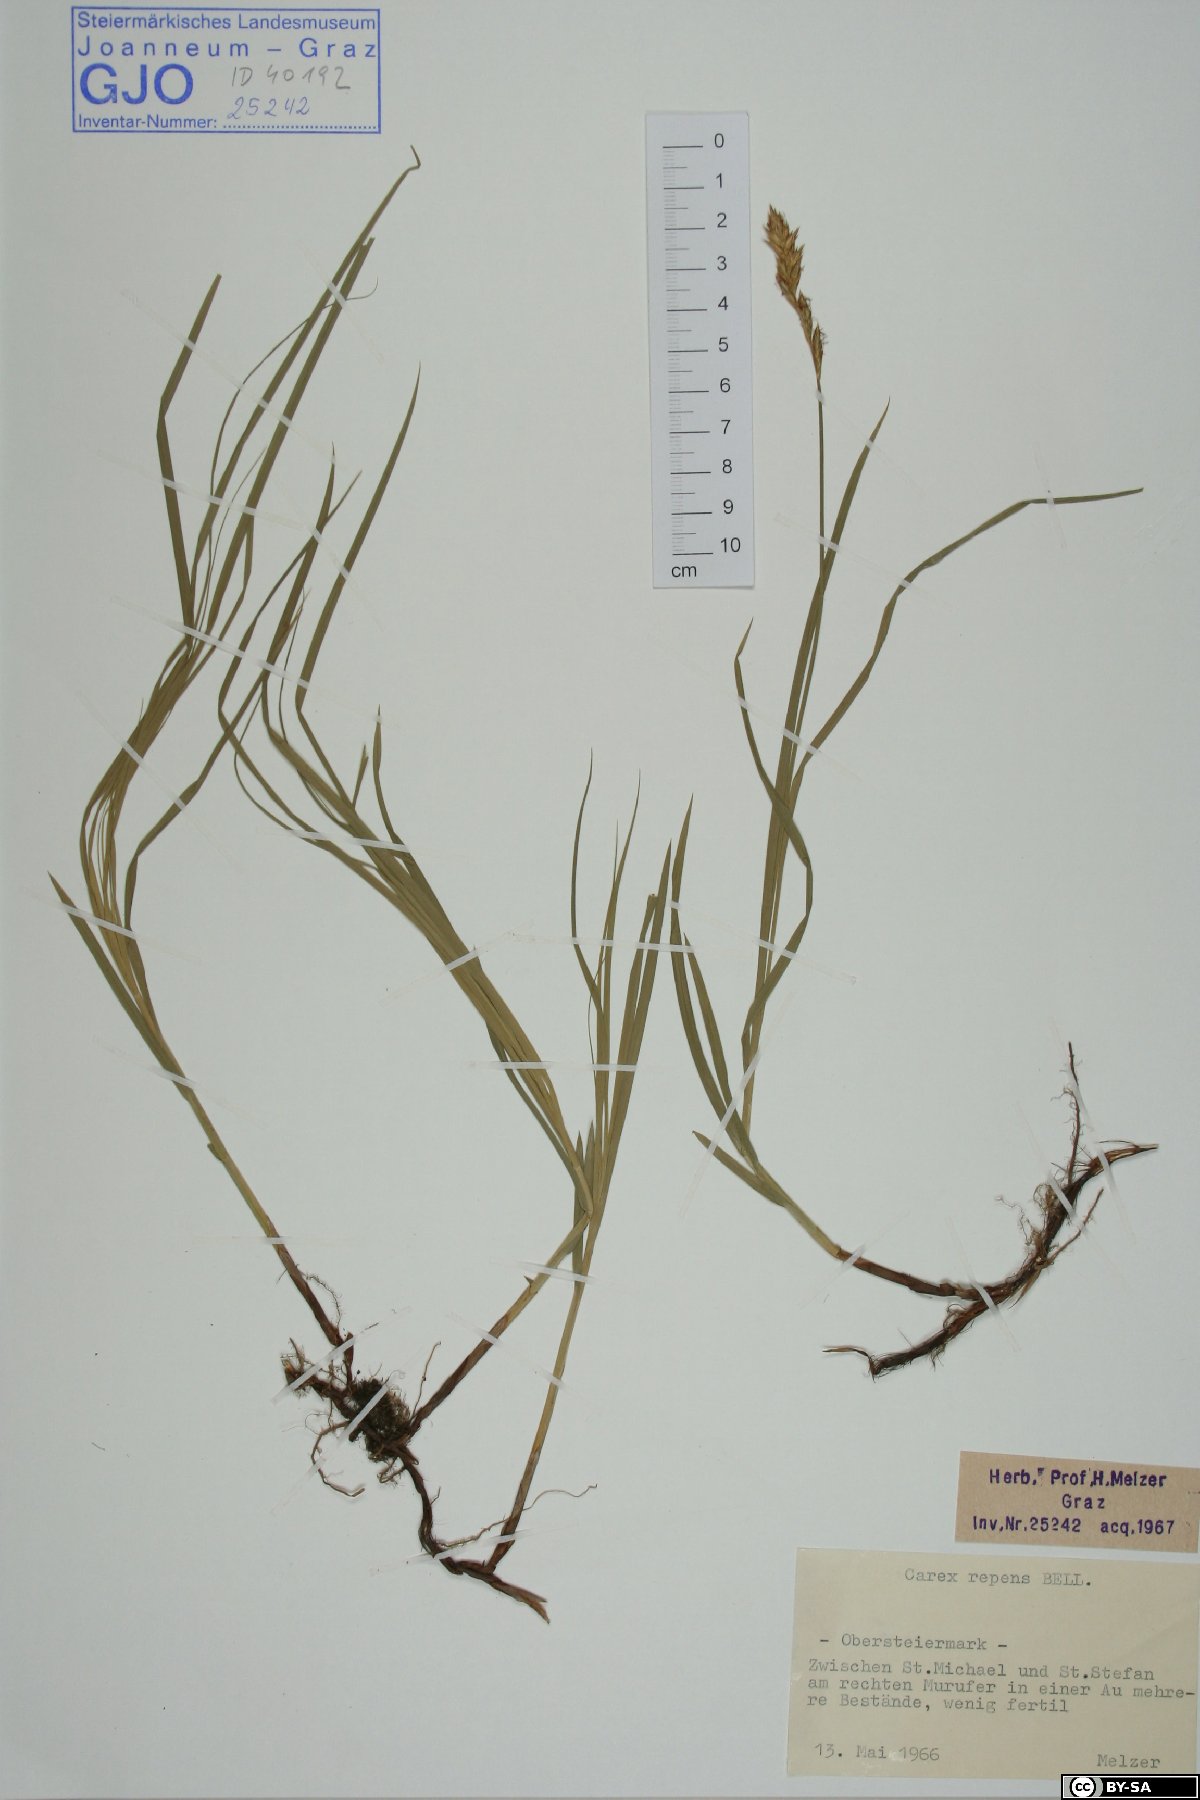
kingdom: Plantae
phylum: Tracheophyta
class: Liliopsida
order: Poales
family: Cyperaceae
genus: Carex
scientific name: Carex repens
